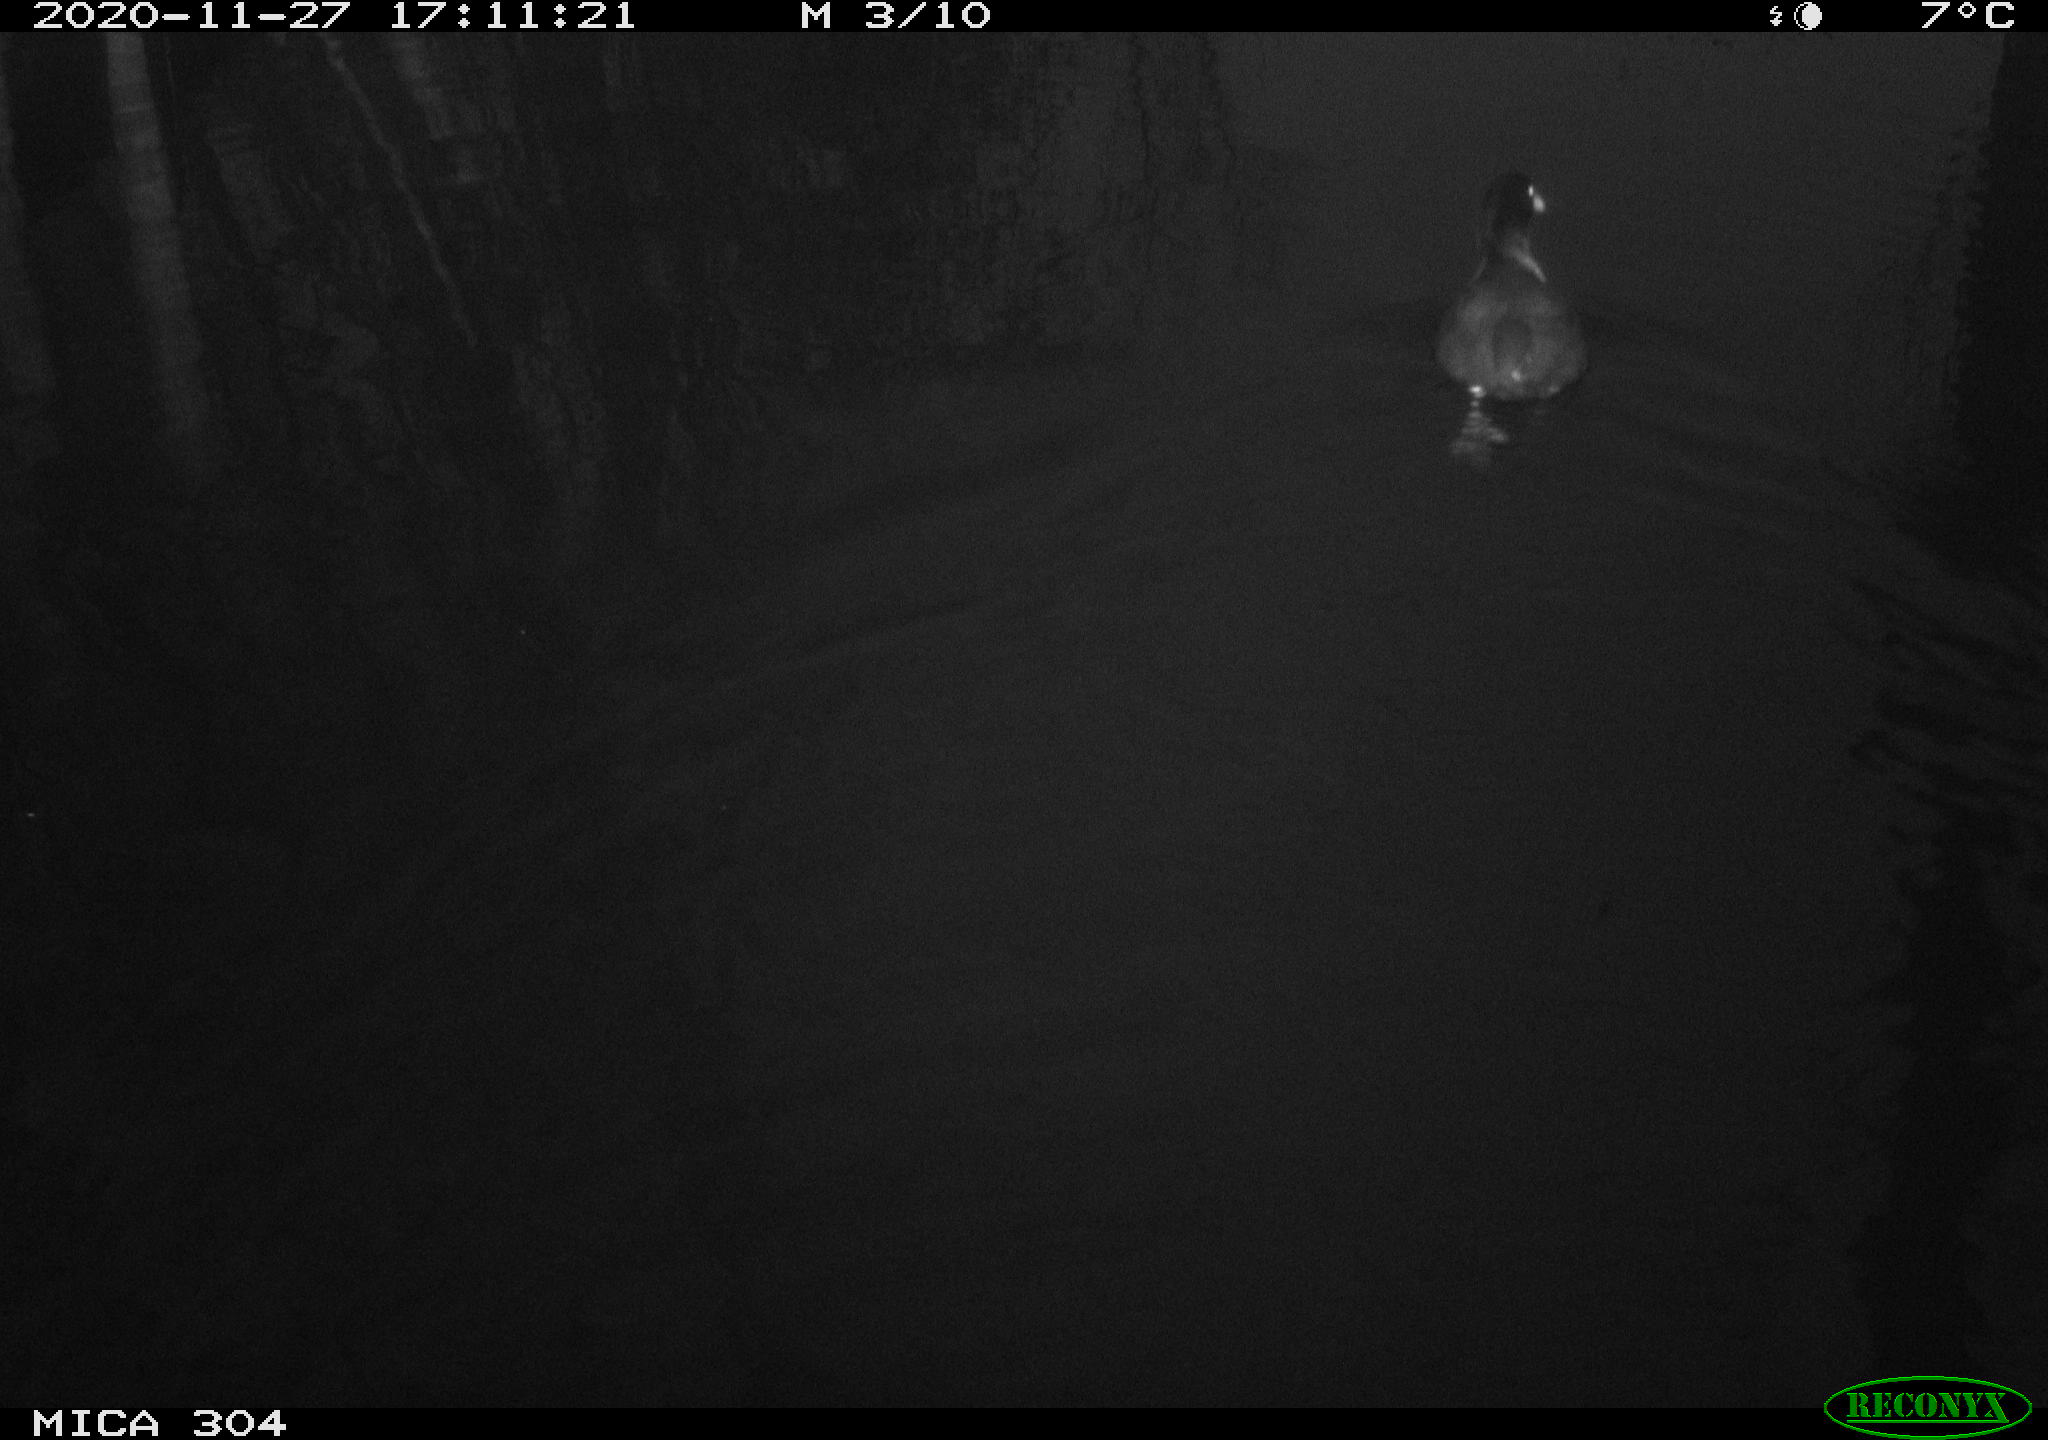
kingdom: Animalia
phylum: Chordata
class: Aves
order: Gruiformes
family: Rallidae
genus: Fulica
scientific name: Fulica atra
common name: Eurasian coot
